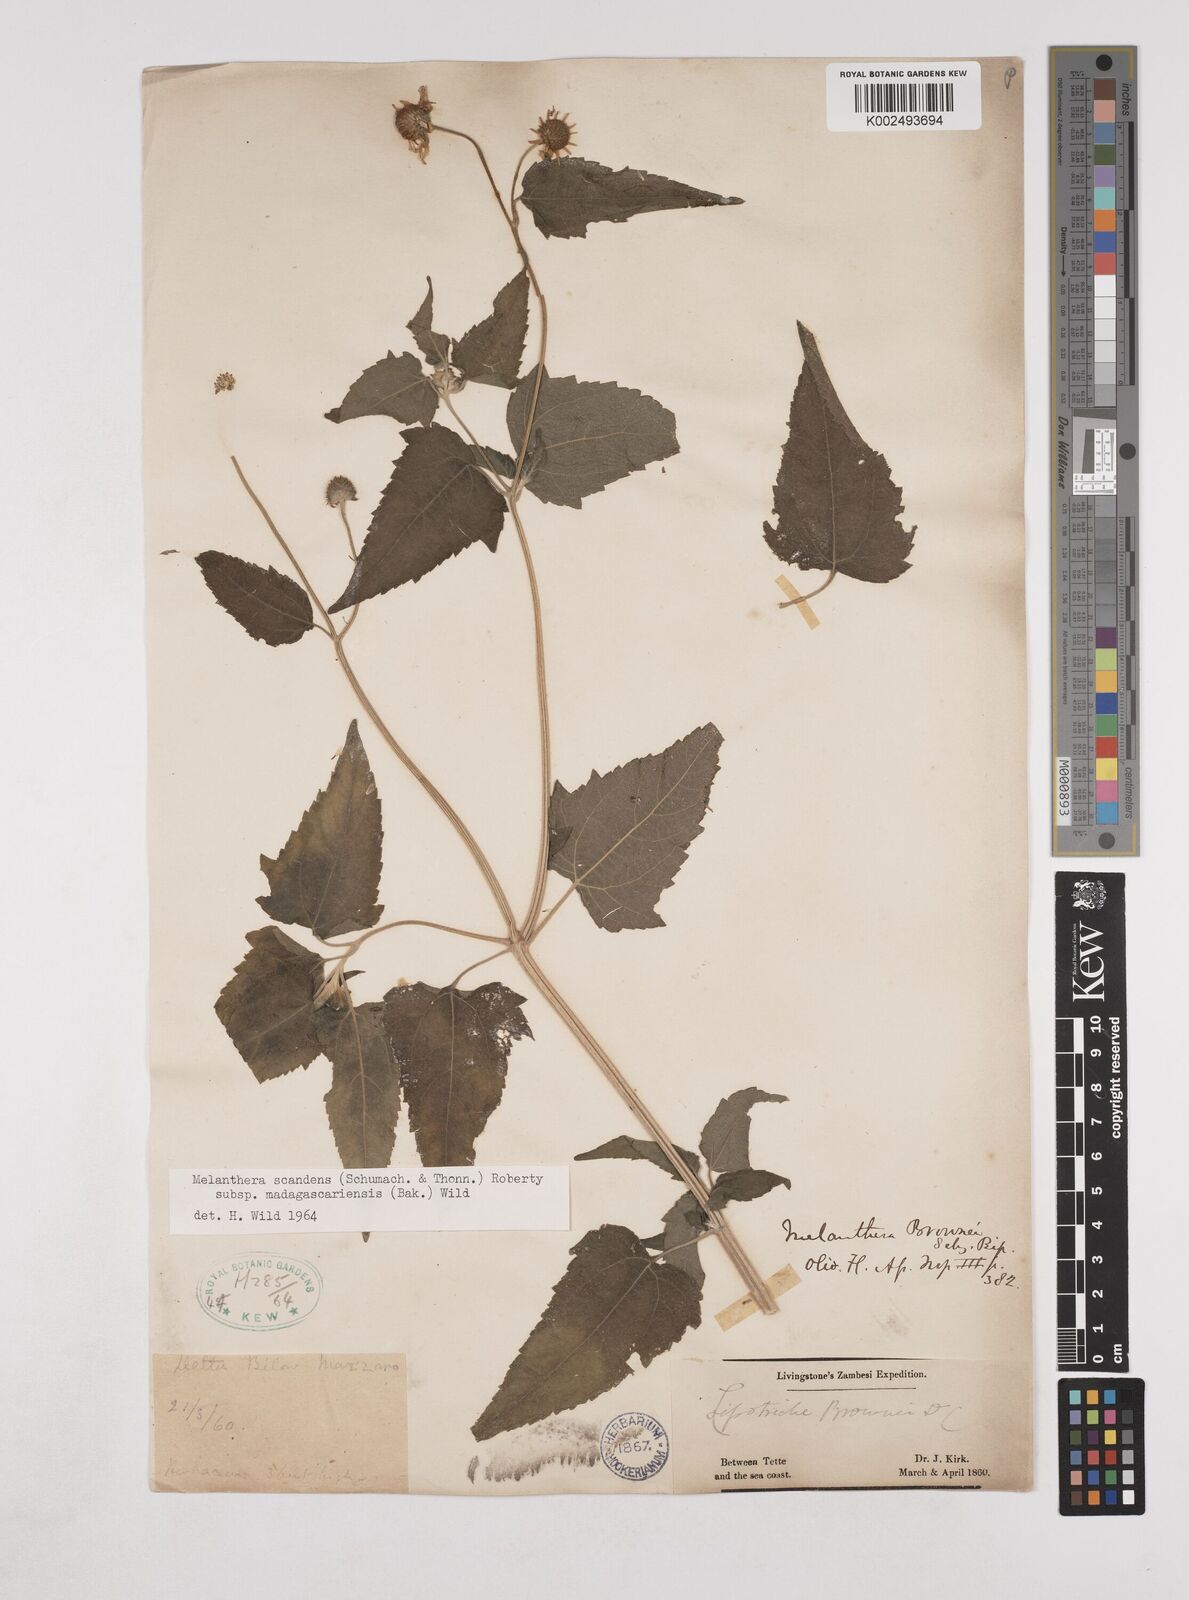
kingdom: Plantae
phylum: Tracheophyta
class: Magnoliopsida
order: Asterales
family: Asteraceae
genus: Lipotriche
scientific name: Lipotriche scandens
